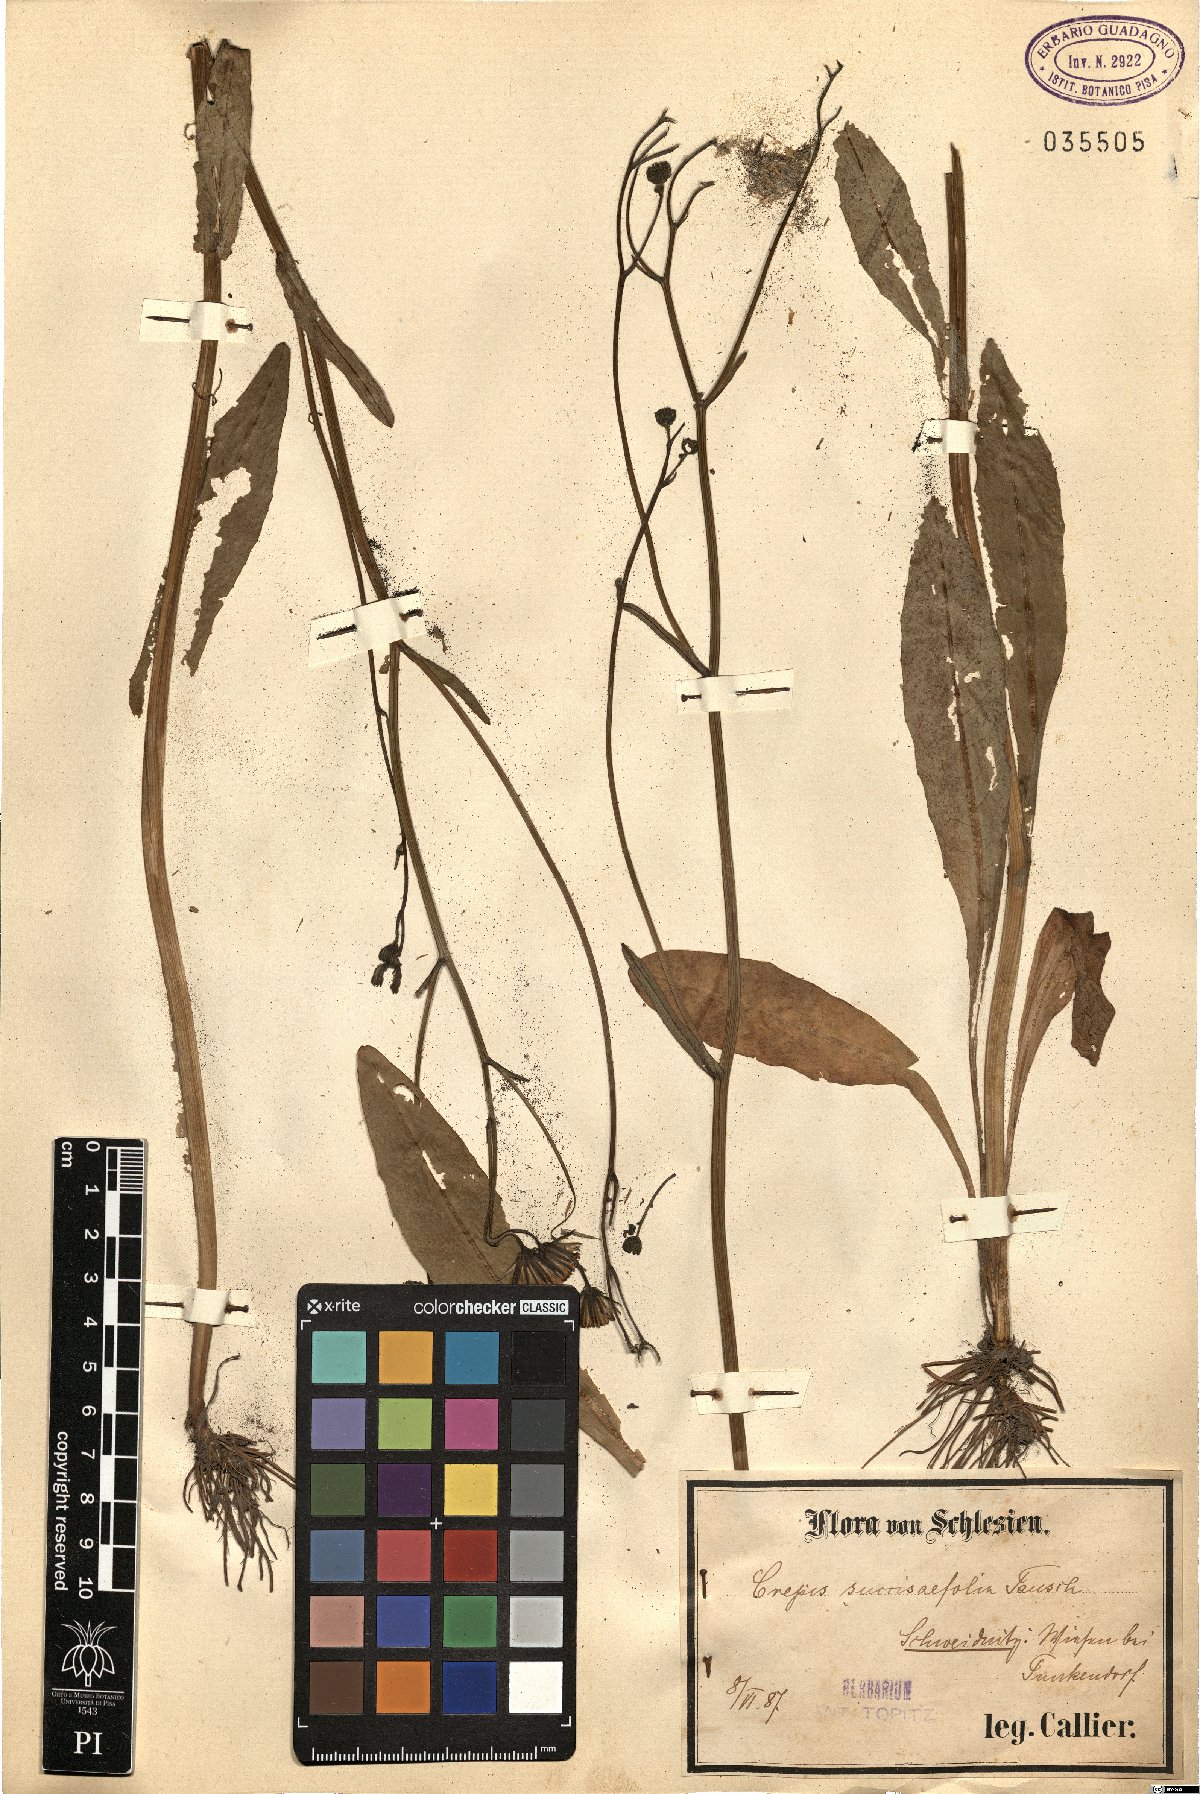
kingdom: Plantae
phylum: Tracheophyta
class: Magnoliopsida
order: Asterales
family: Asteraceae
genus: Crepis
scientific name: Crepis mollis
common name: Northern hawk's-beard
